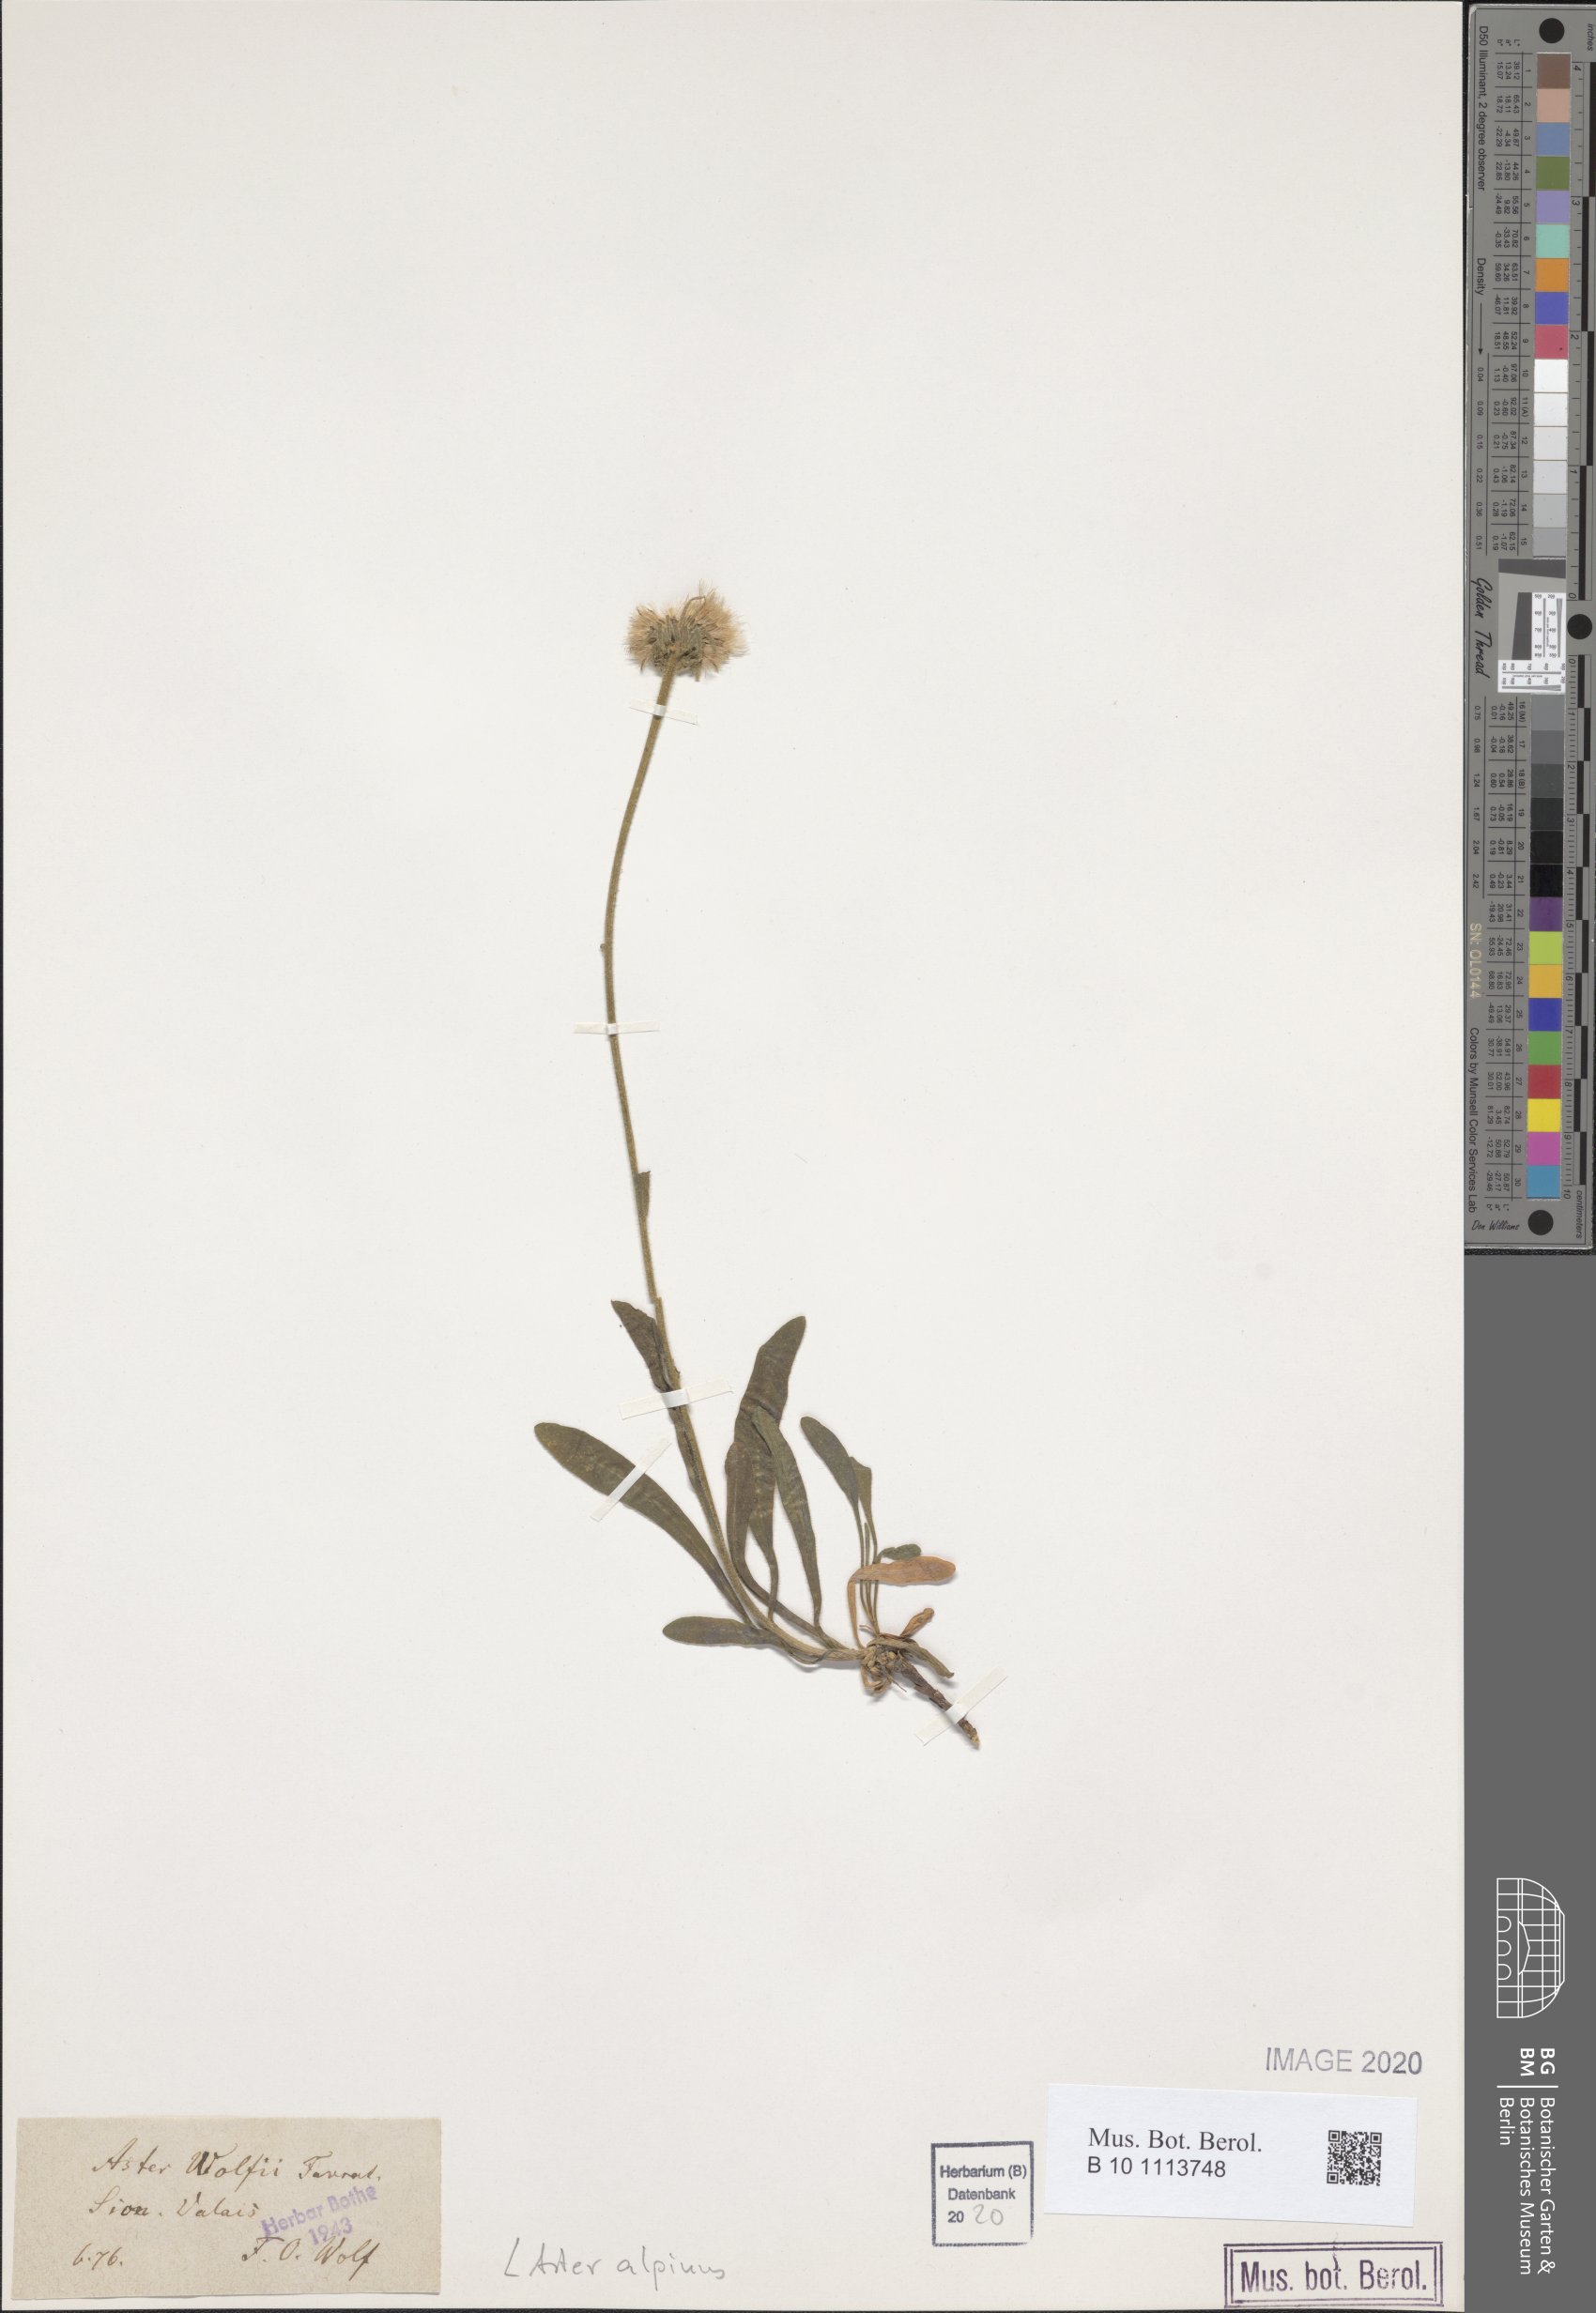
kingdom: Plantae
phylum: Tracheophyta
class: Magnoliopsida
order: Asterales
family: Asteraceae
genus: Aster
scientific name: Aster alpinus
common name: Alpine aster
